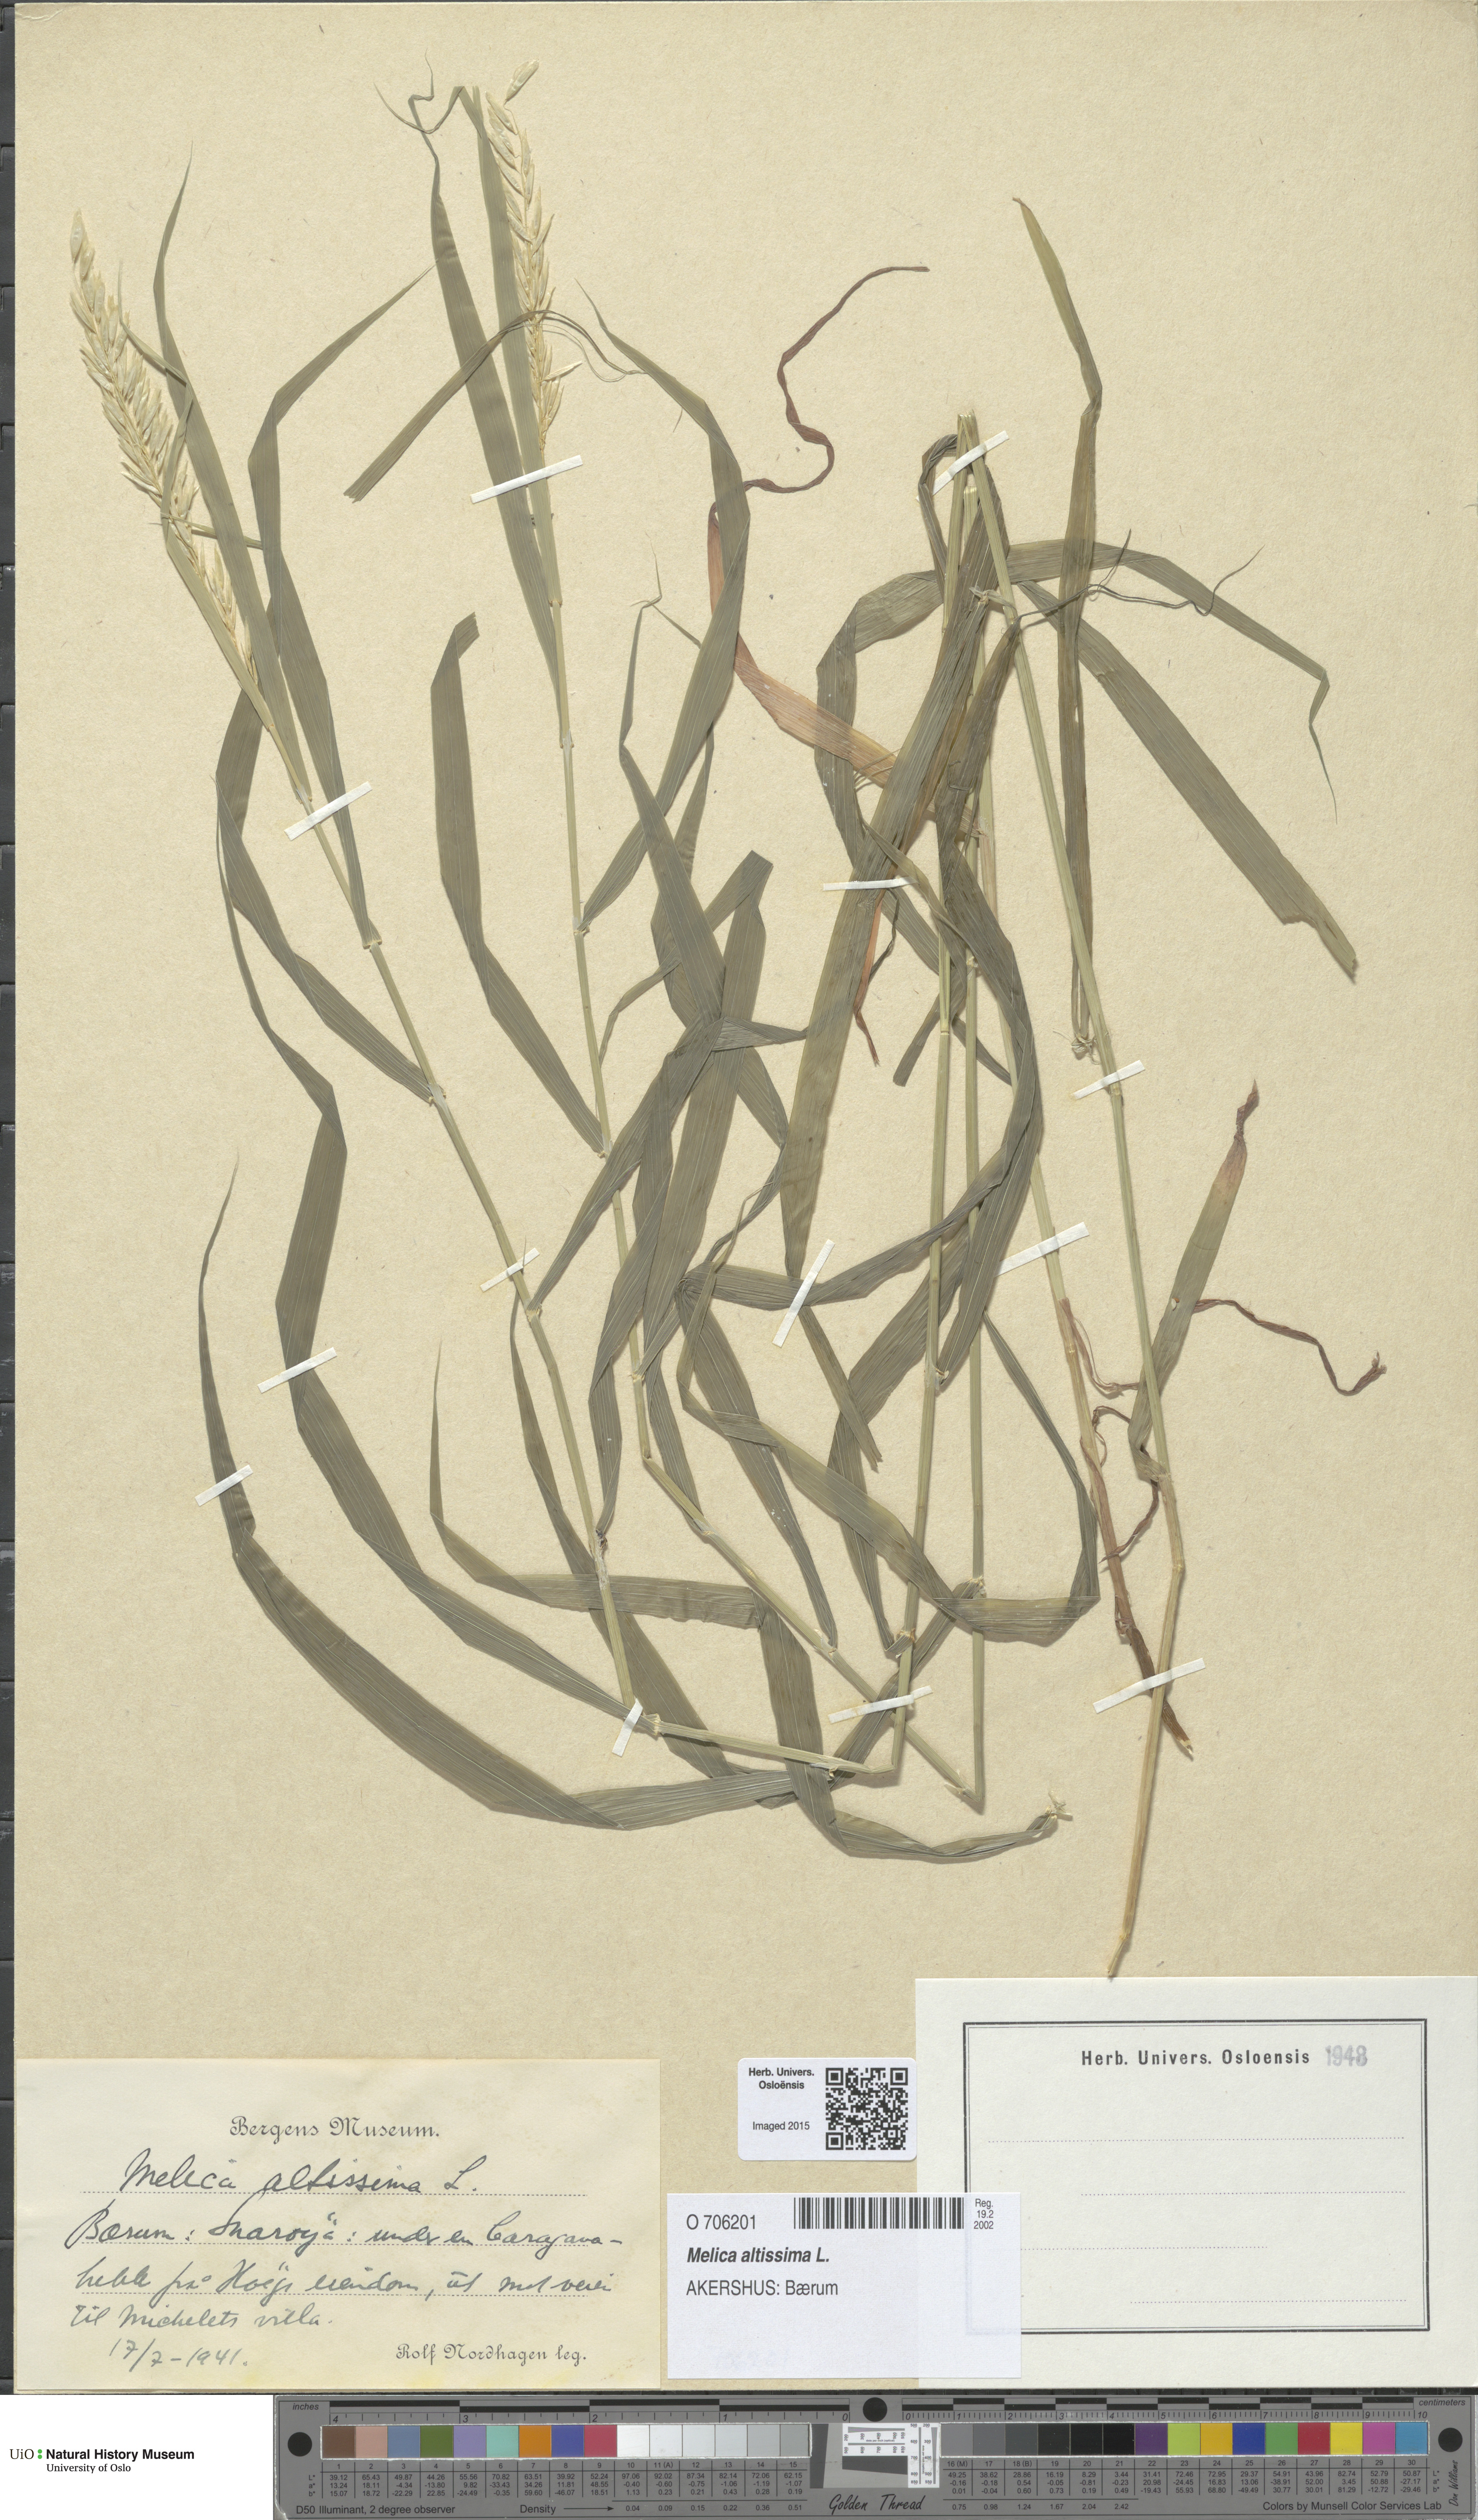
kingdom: Plantae
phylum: Tracheophyta
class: Liliopsida
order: Poales
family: Poaceae
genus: Melica
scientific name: Melica altissima
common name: Siberian melicgrass
